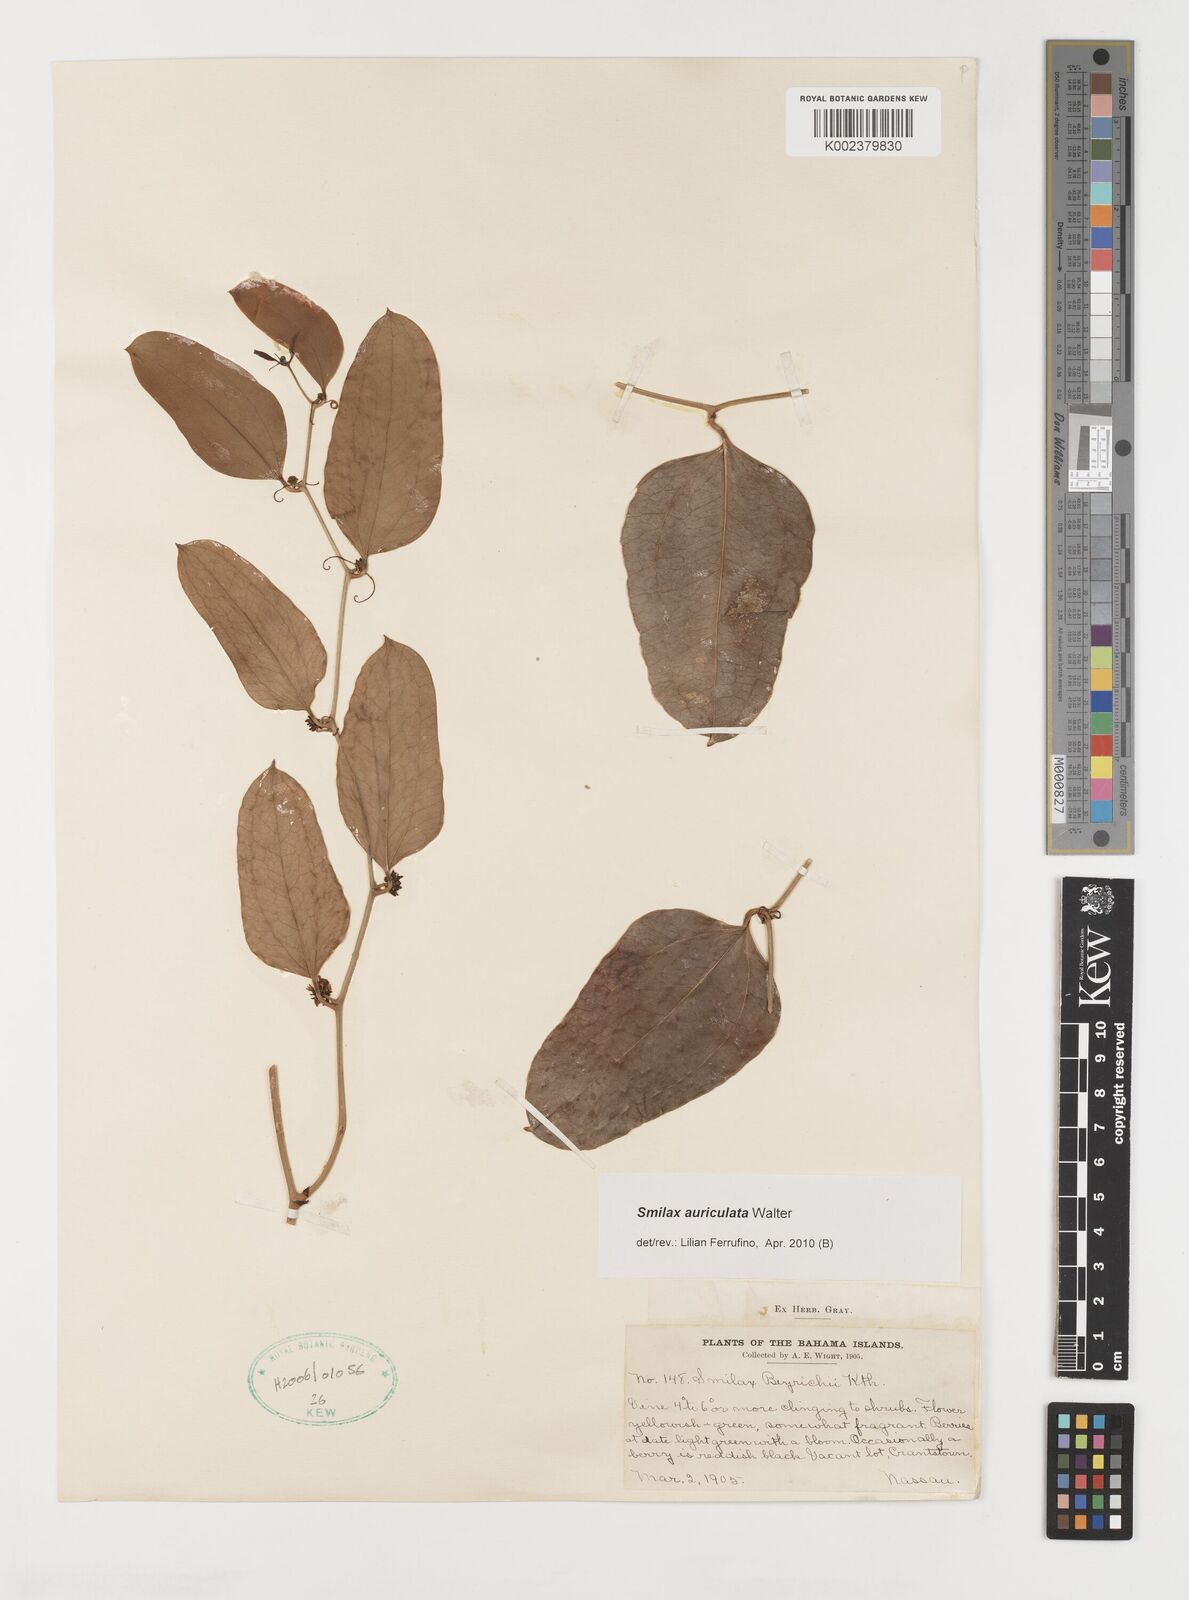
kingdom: Plantae
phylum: Tracheophyta
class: Liliopsida
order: Liliales
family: Smilacaceae
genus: Smilax
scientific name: Smilax auriculata
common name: Wild bamboo
